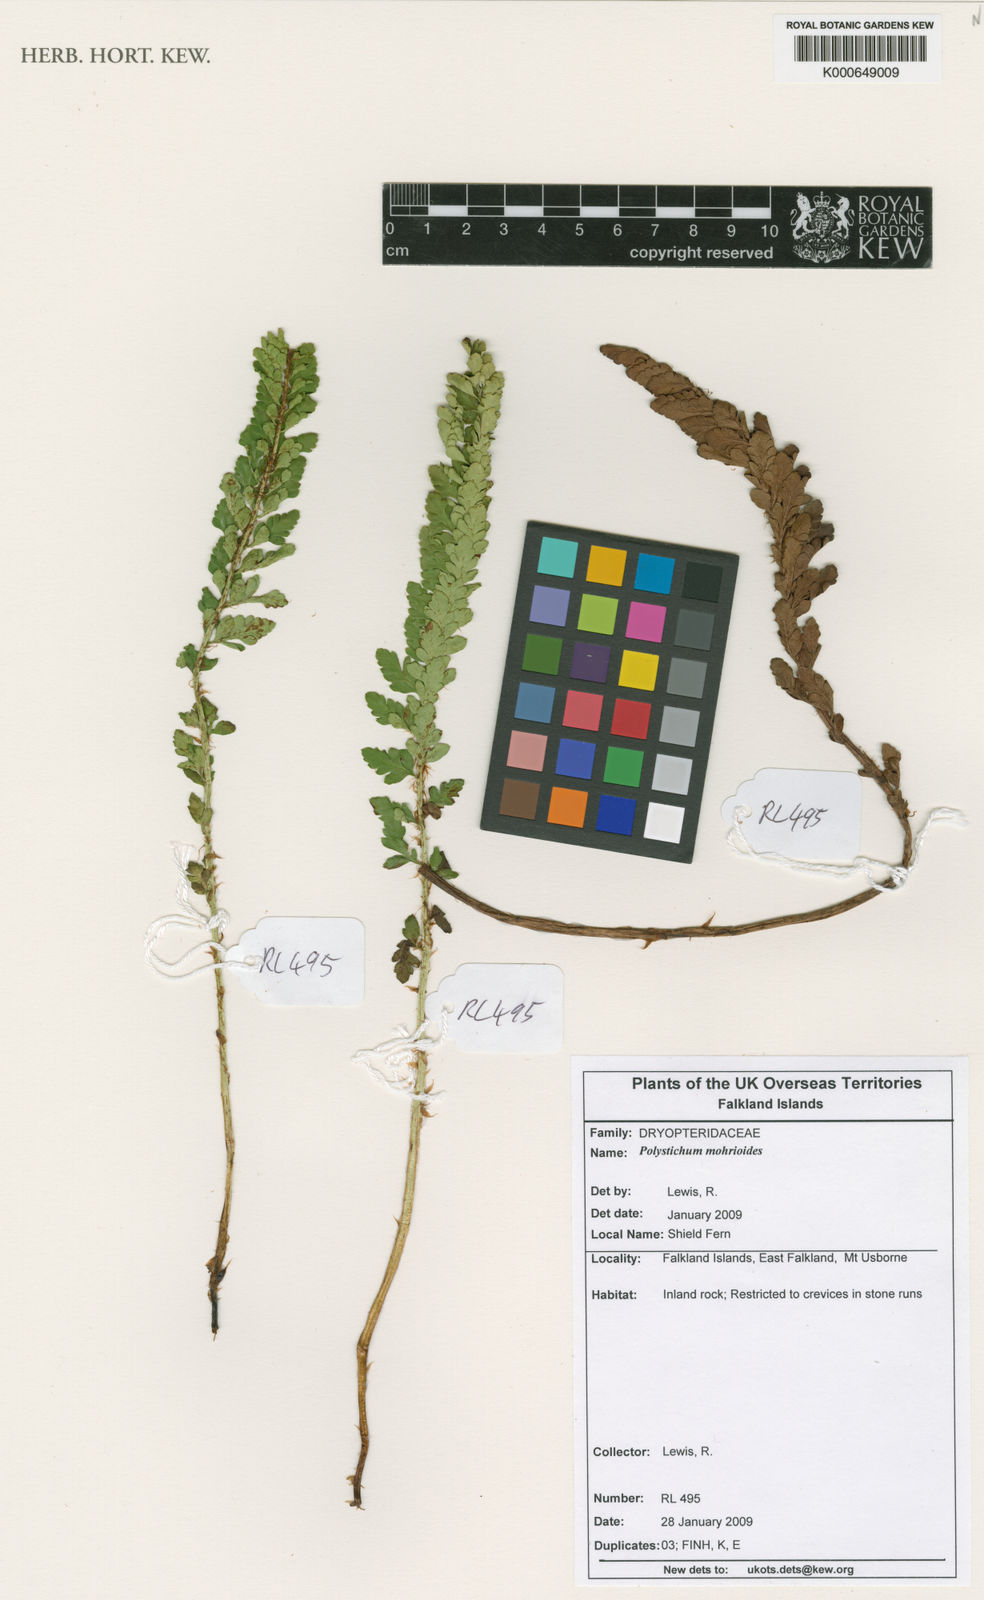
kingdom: Plantae
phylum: Tracheophyta
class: Polypodiopsida
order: Polypodiales
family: Dryopteridaceae
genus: Polystichum
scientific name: Polystichum mohrioides
